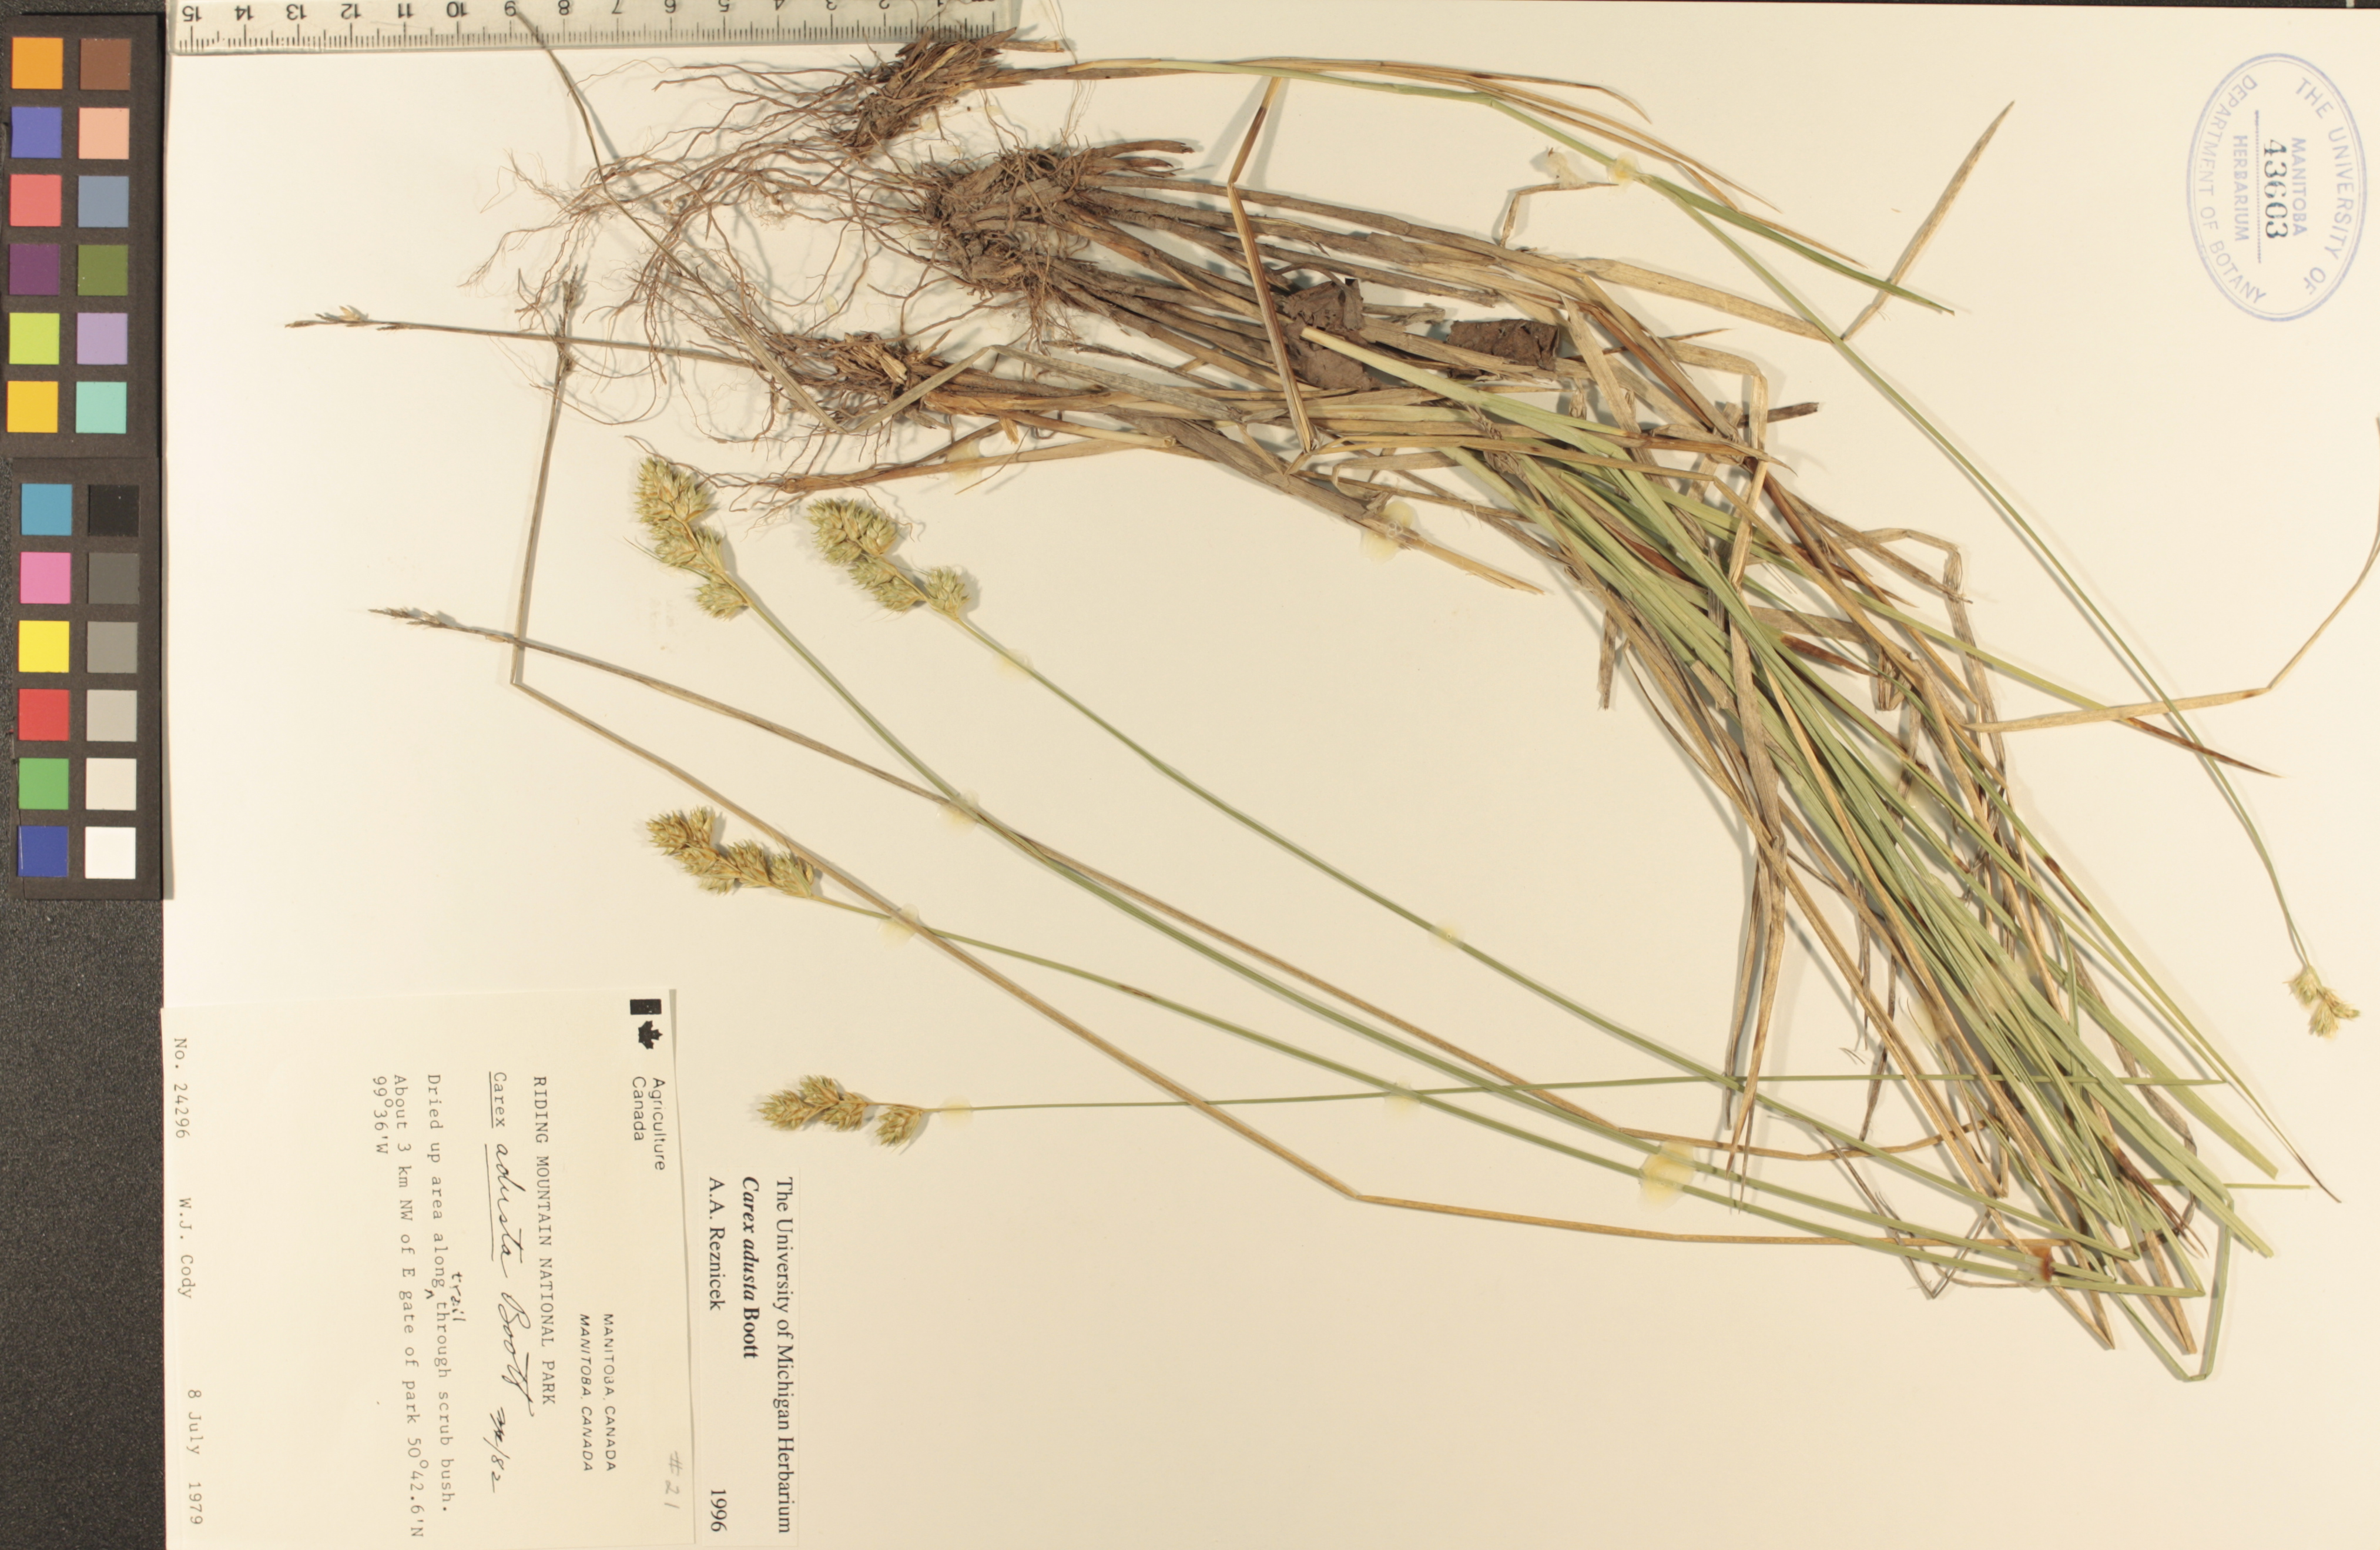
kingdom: Plantae
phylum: Tracheophyta
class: Liliopsida
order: Poales
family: Cyperaceae
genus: Carex
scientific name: Carex adusta
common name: Browned sedge
